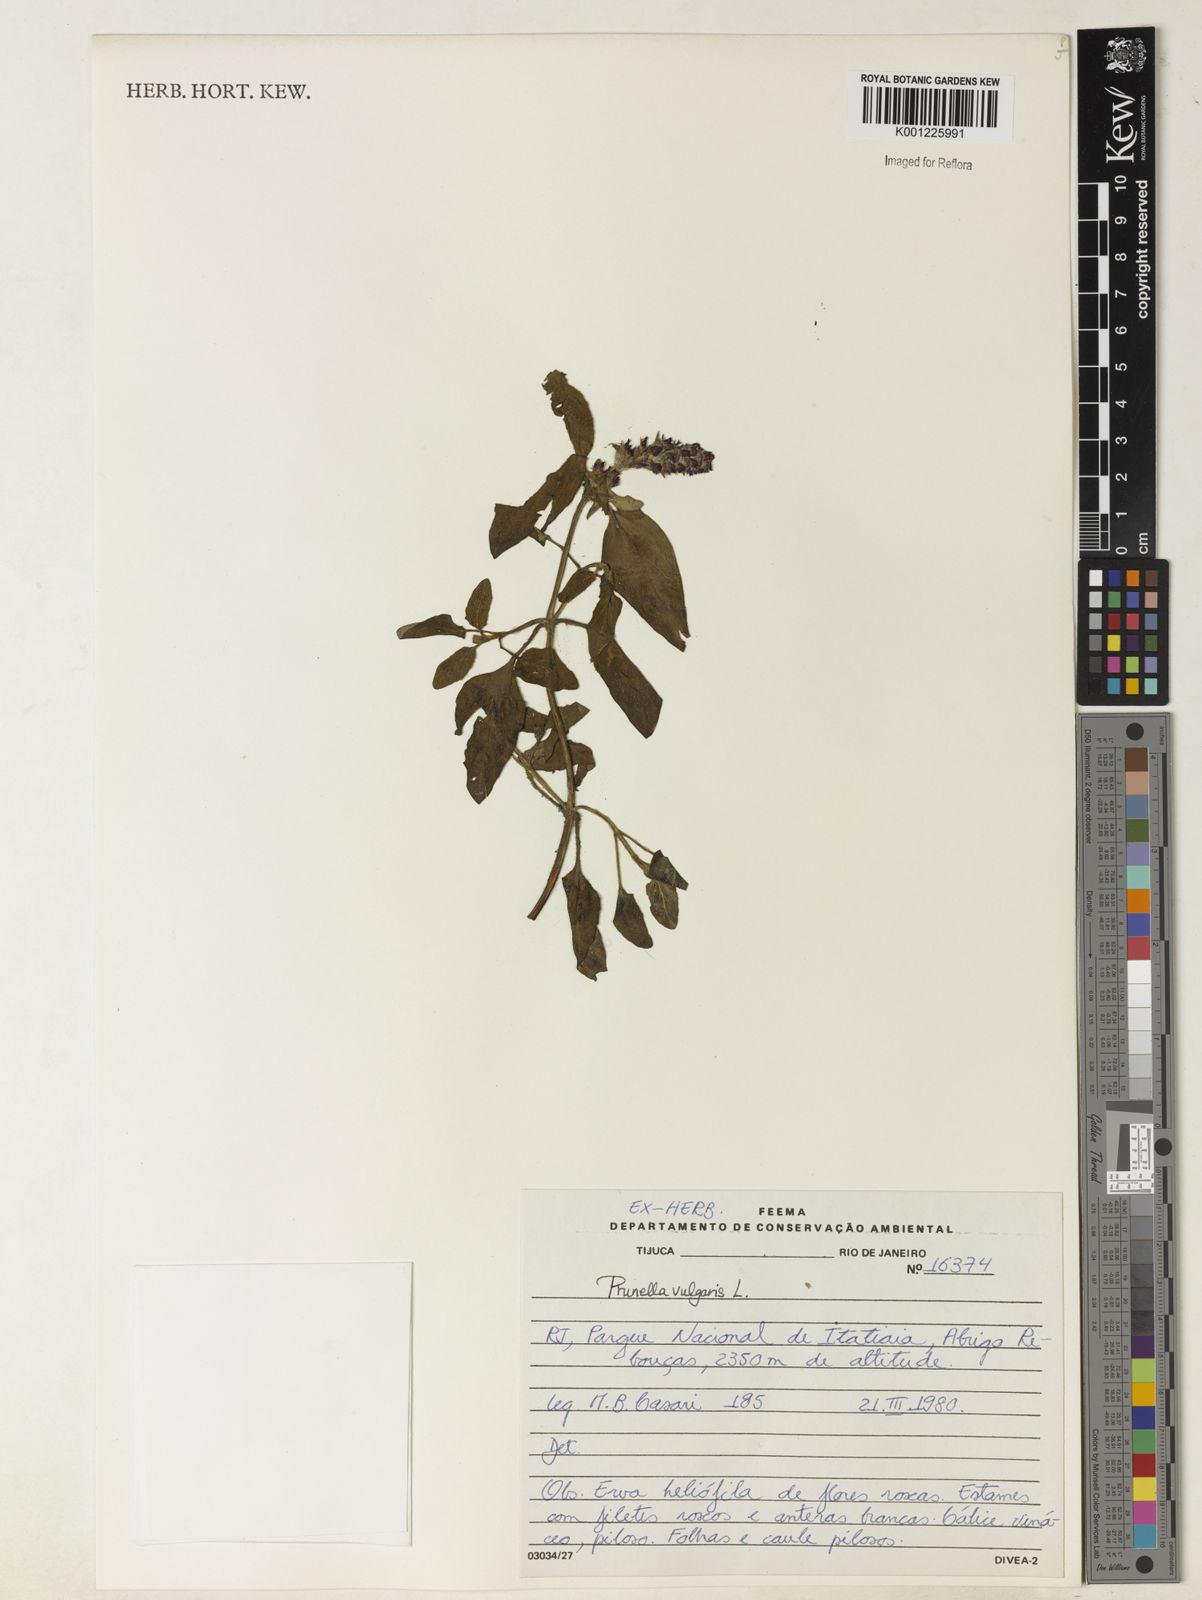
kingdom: Plantae
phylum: Tracheophyta
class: Magnoliopsida
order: Lamiales
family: Lamiaceae
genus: Prunella
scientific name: Prunella vulgaris
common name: Heal-all
